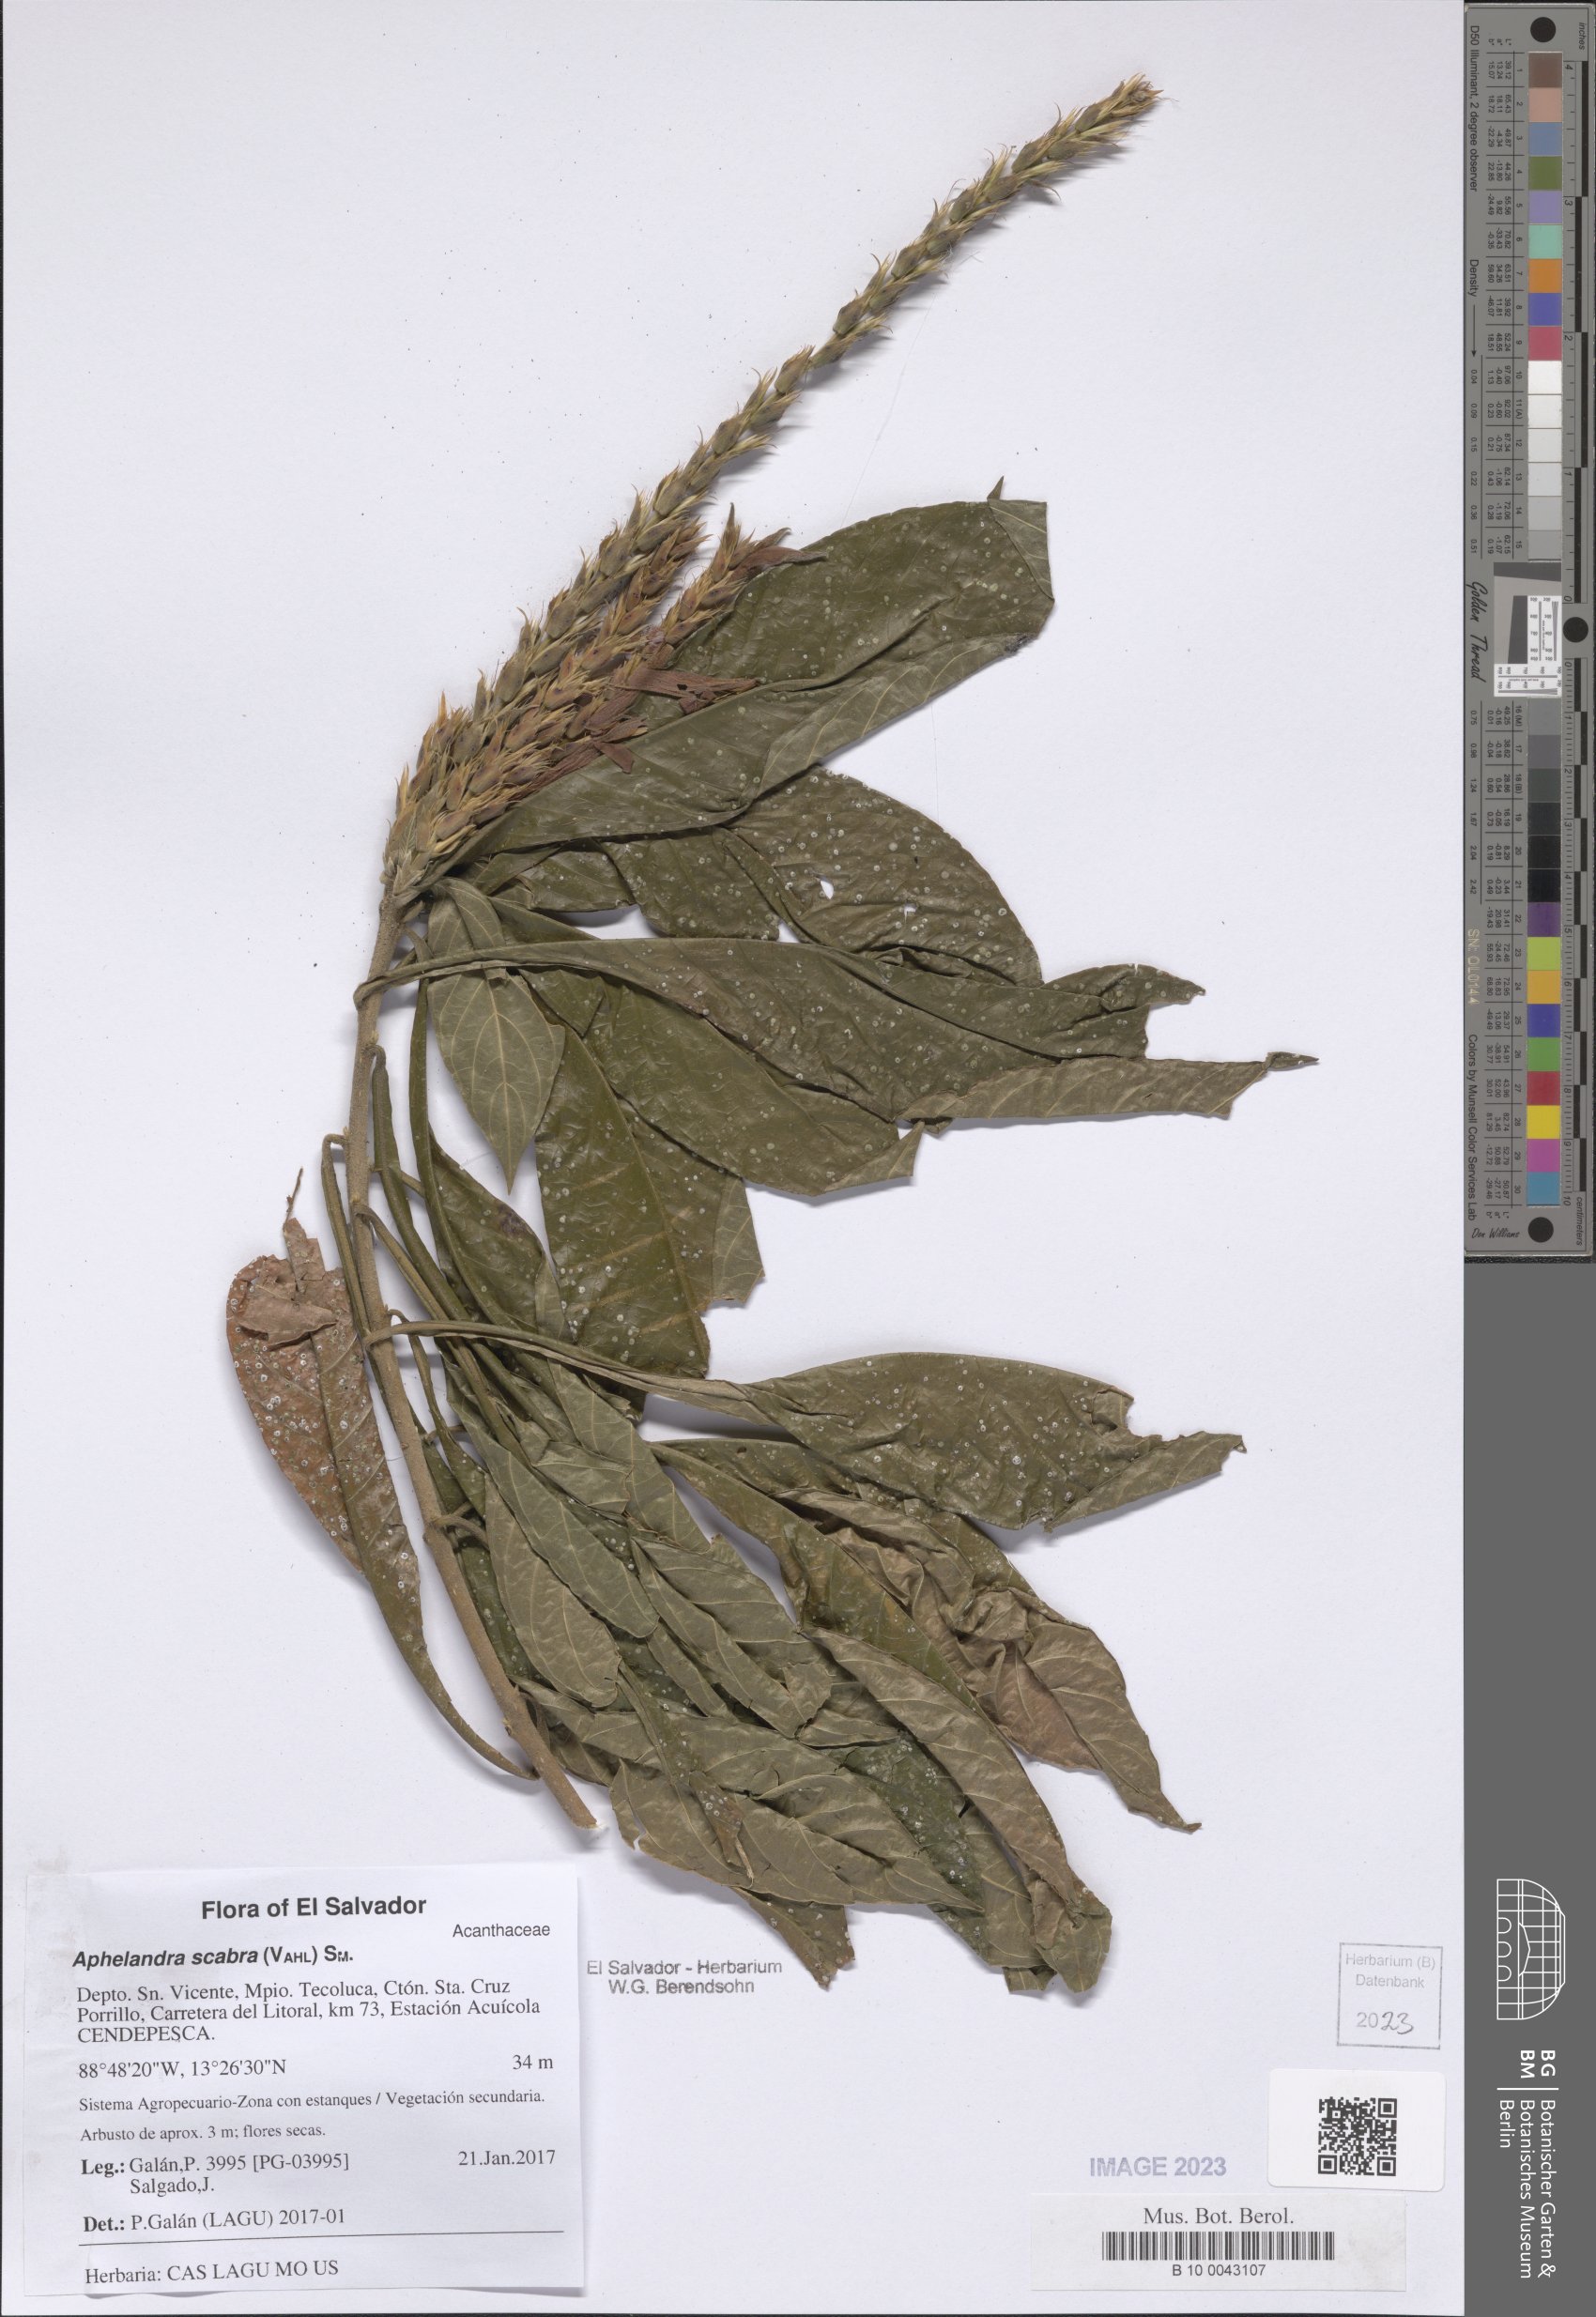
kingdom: Plantae
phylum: Tracheophyta
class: Magnoliopsida
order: Lamiales
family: Acanthaceae
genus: Aphelandra
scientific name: Aphelandra scabra
